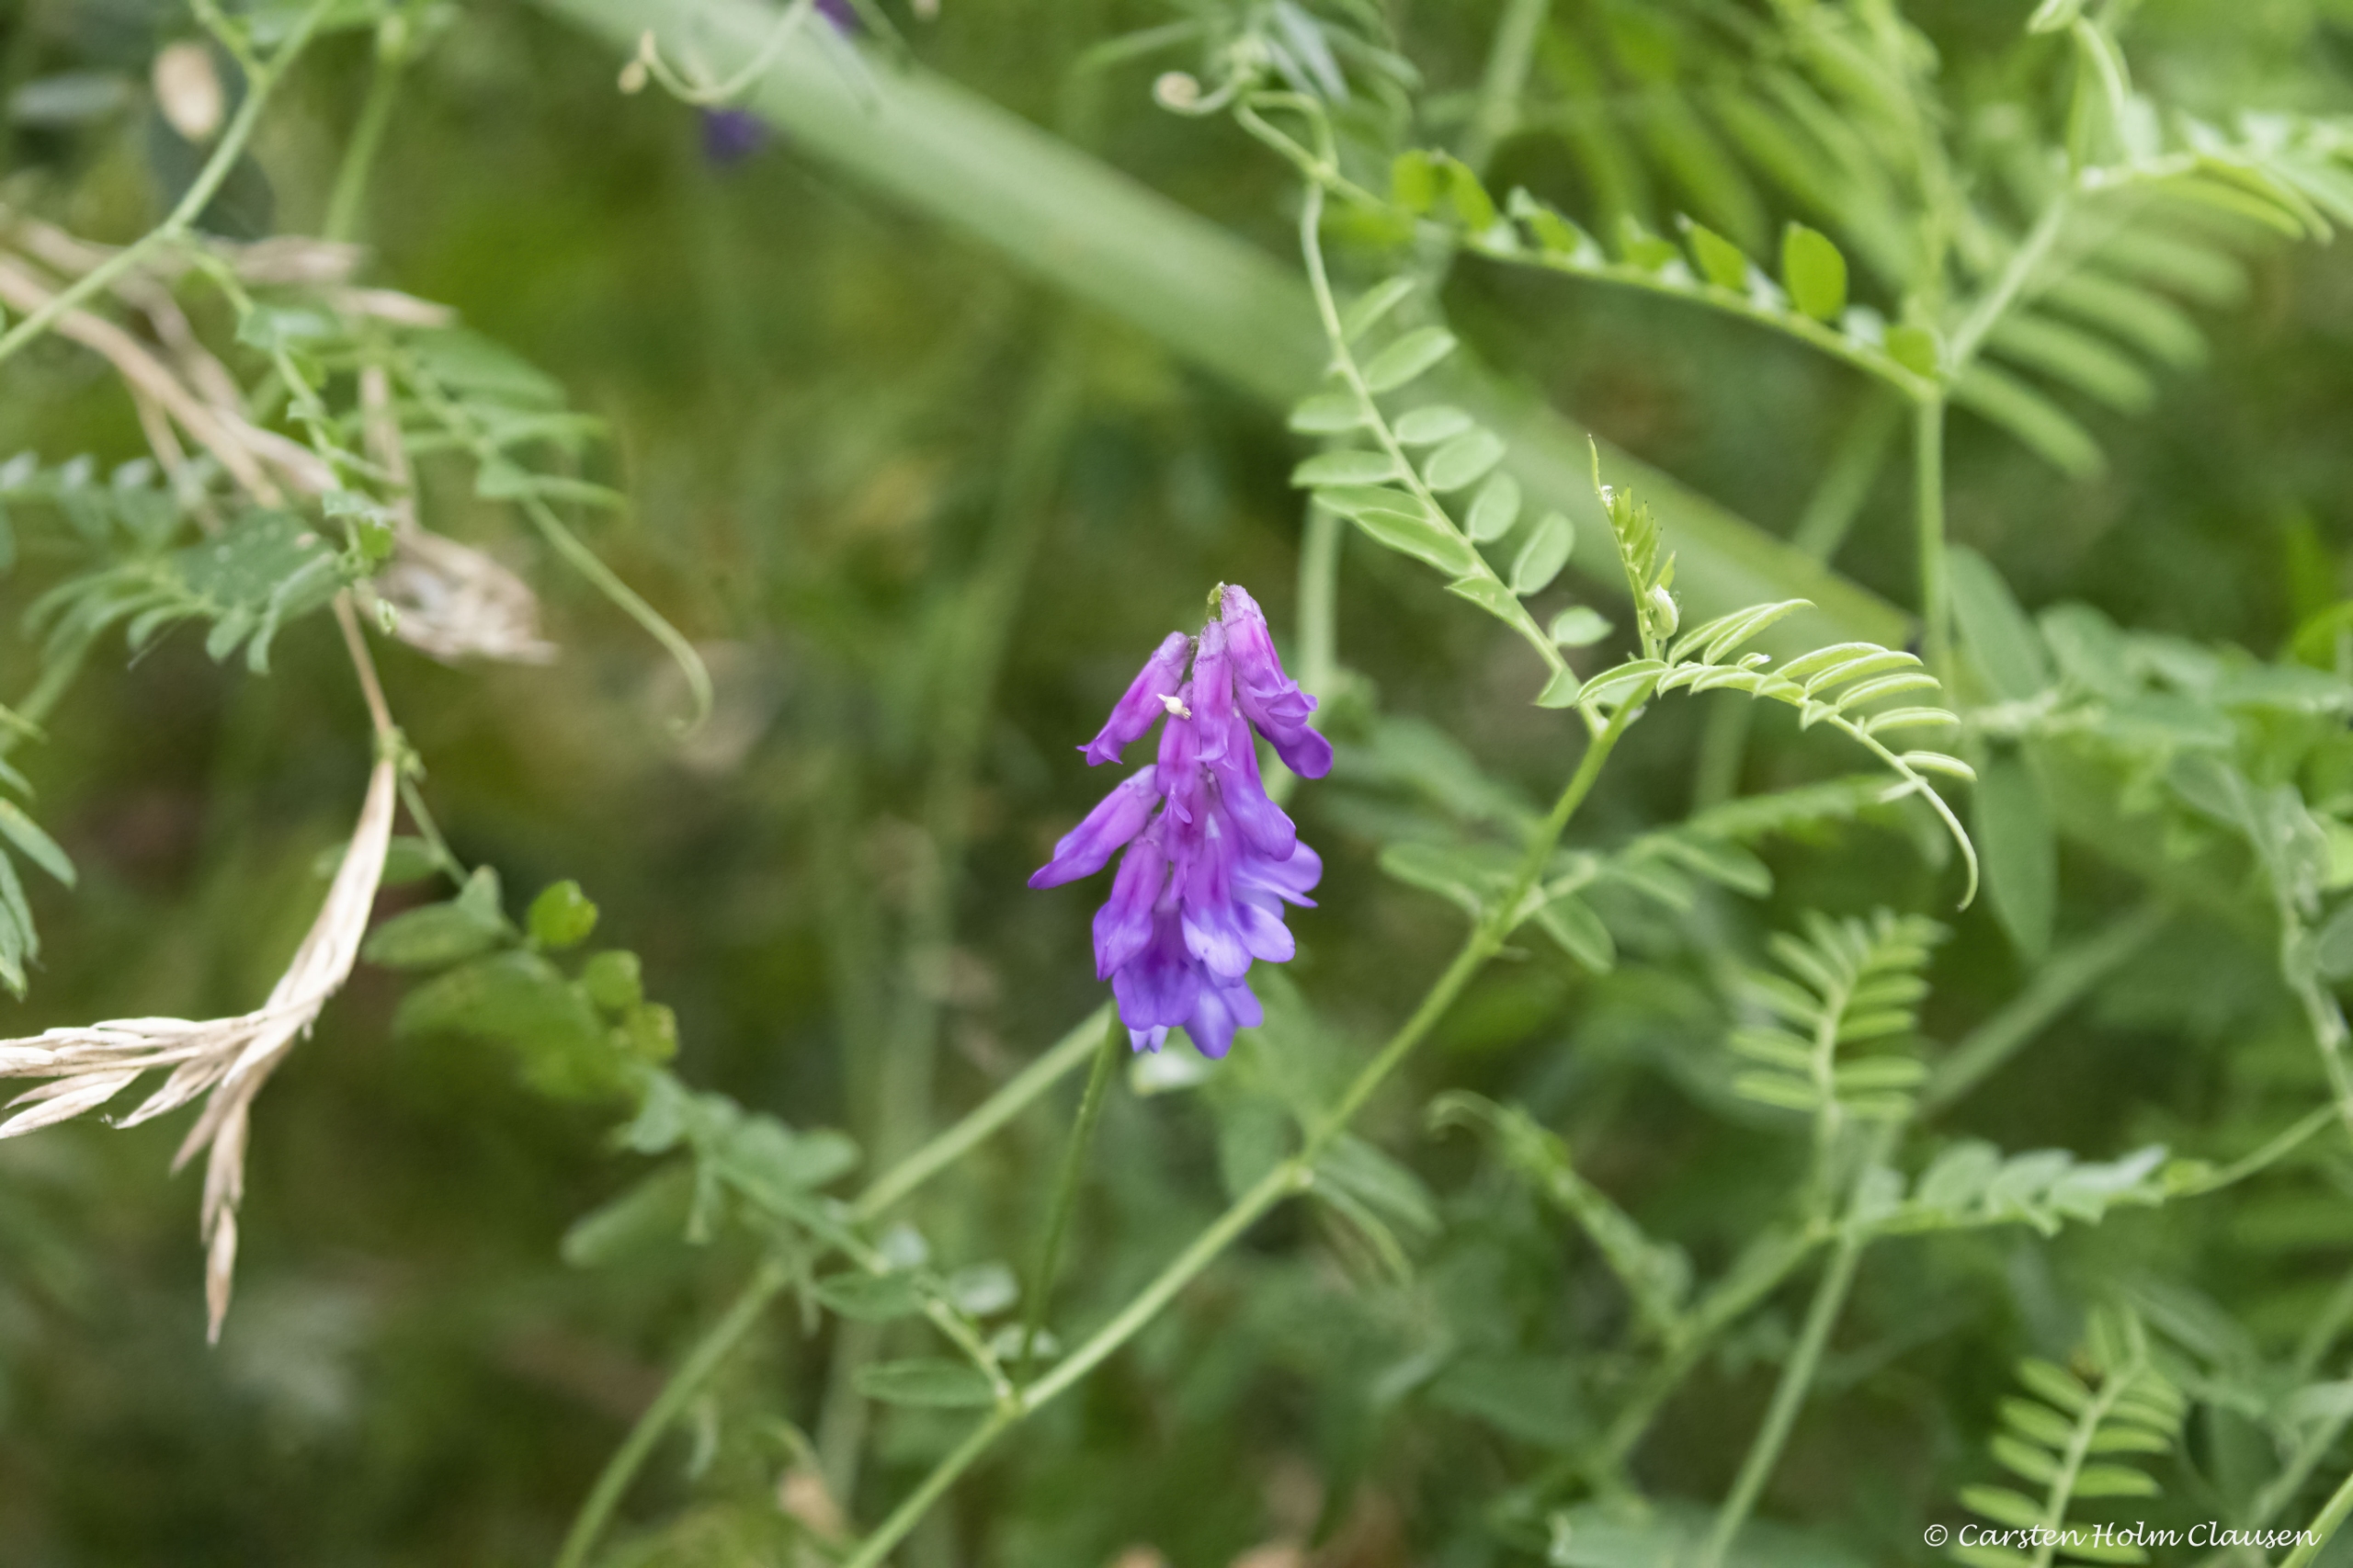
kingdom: Plantae
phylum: Tracheophyta
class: Magnoliopsida
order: Fabales
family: Fabaceae
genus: Vicia
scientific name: Vicia cracca
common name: Muse-vikke
